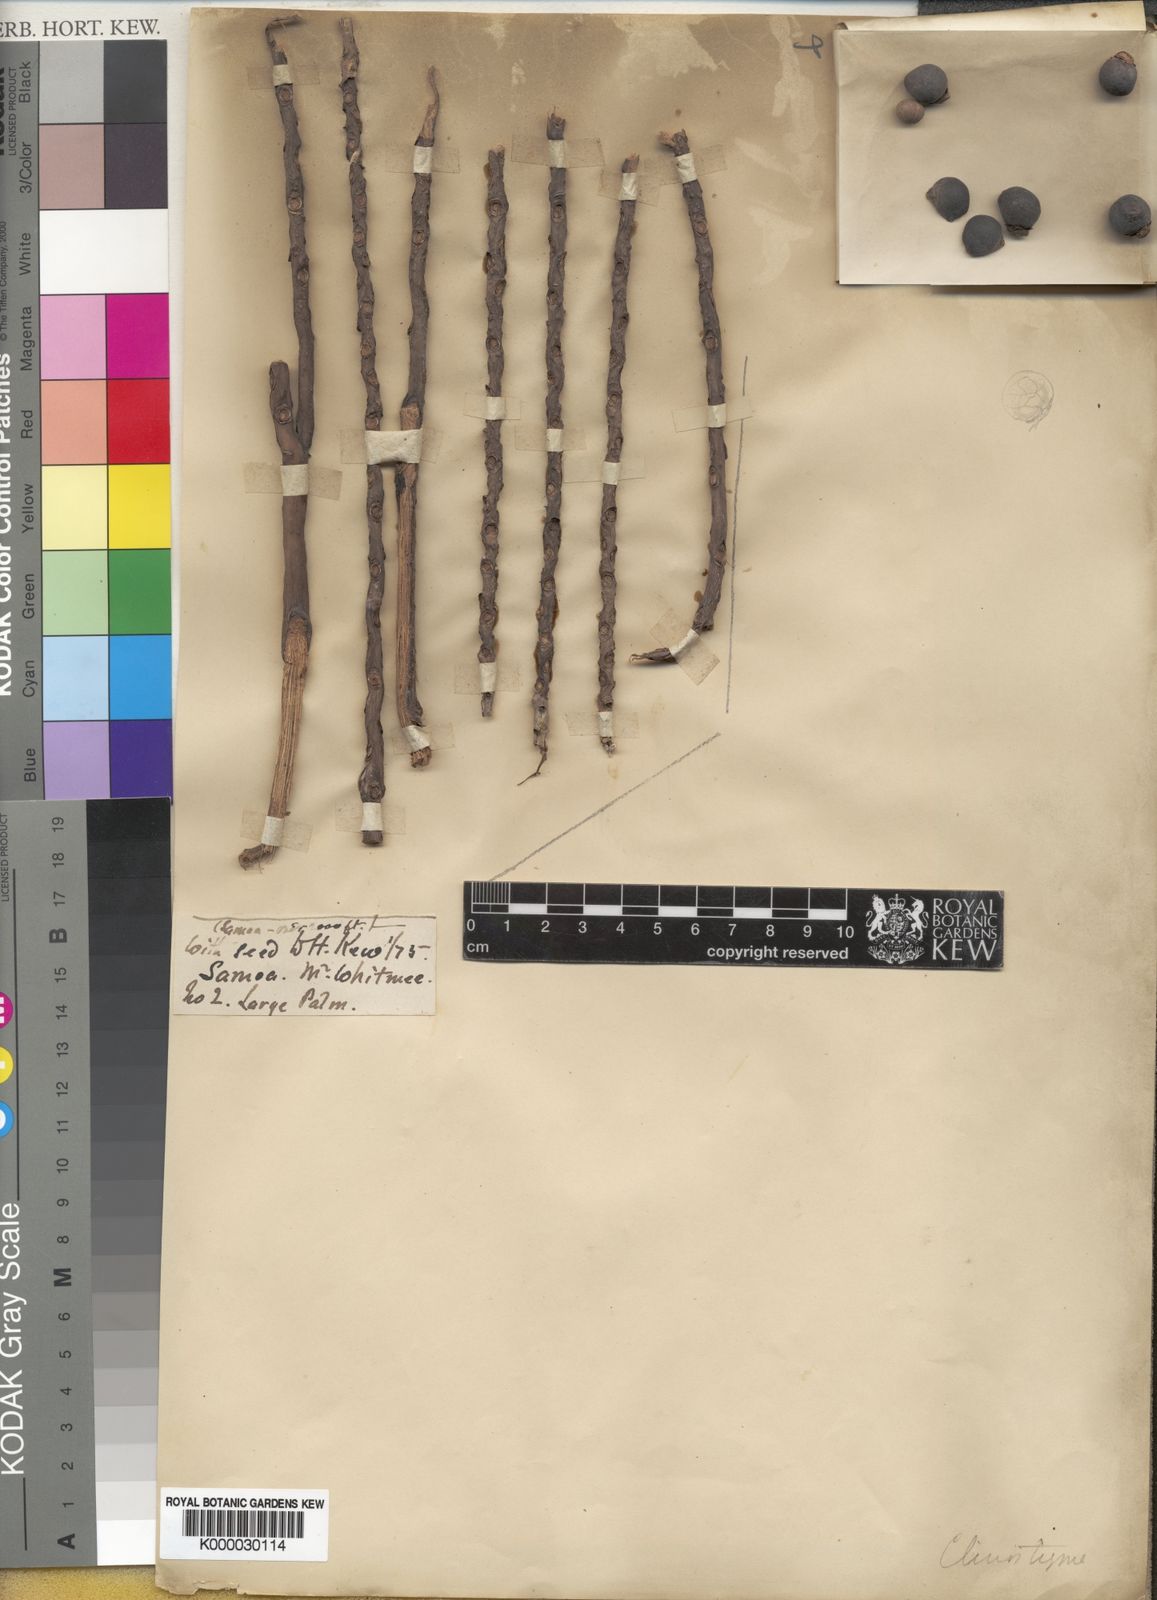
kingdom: Plantae
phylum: Tracheophyta
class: Liliopsida
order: Arecales
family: Arecaceae
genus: Clinostigma
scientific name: Clinostigma
